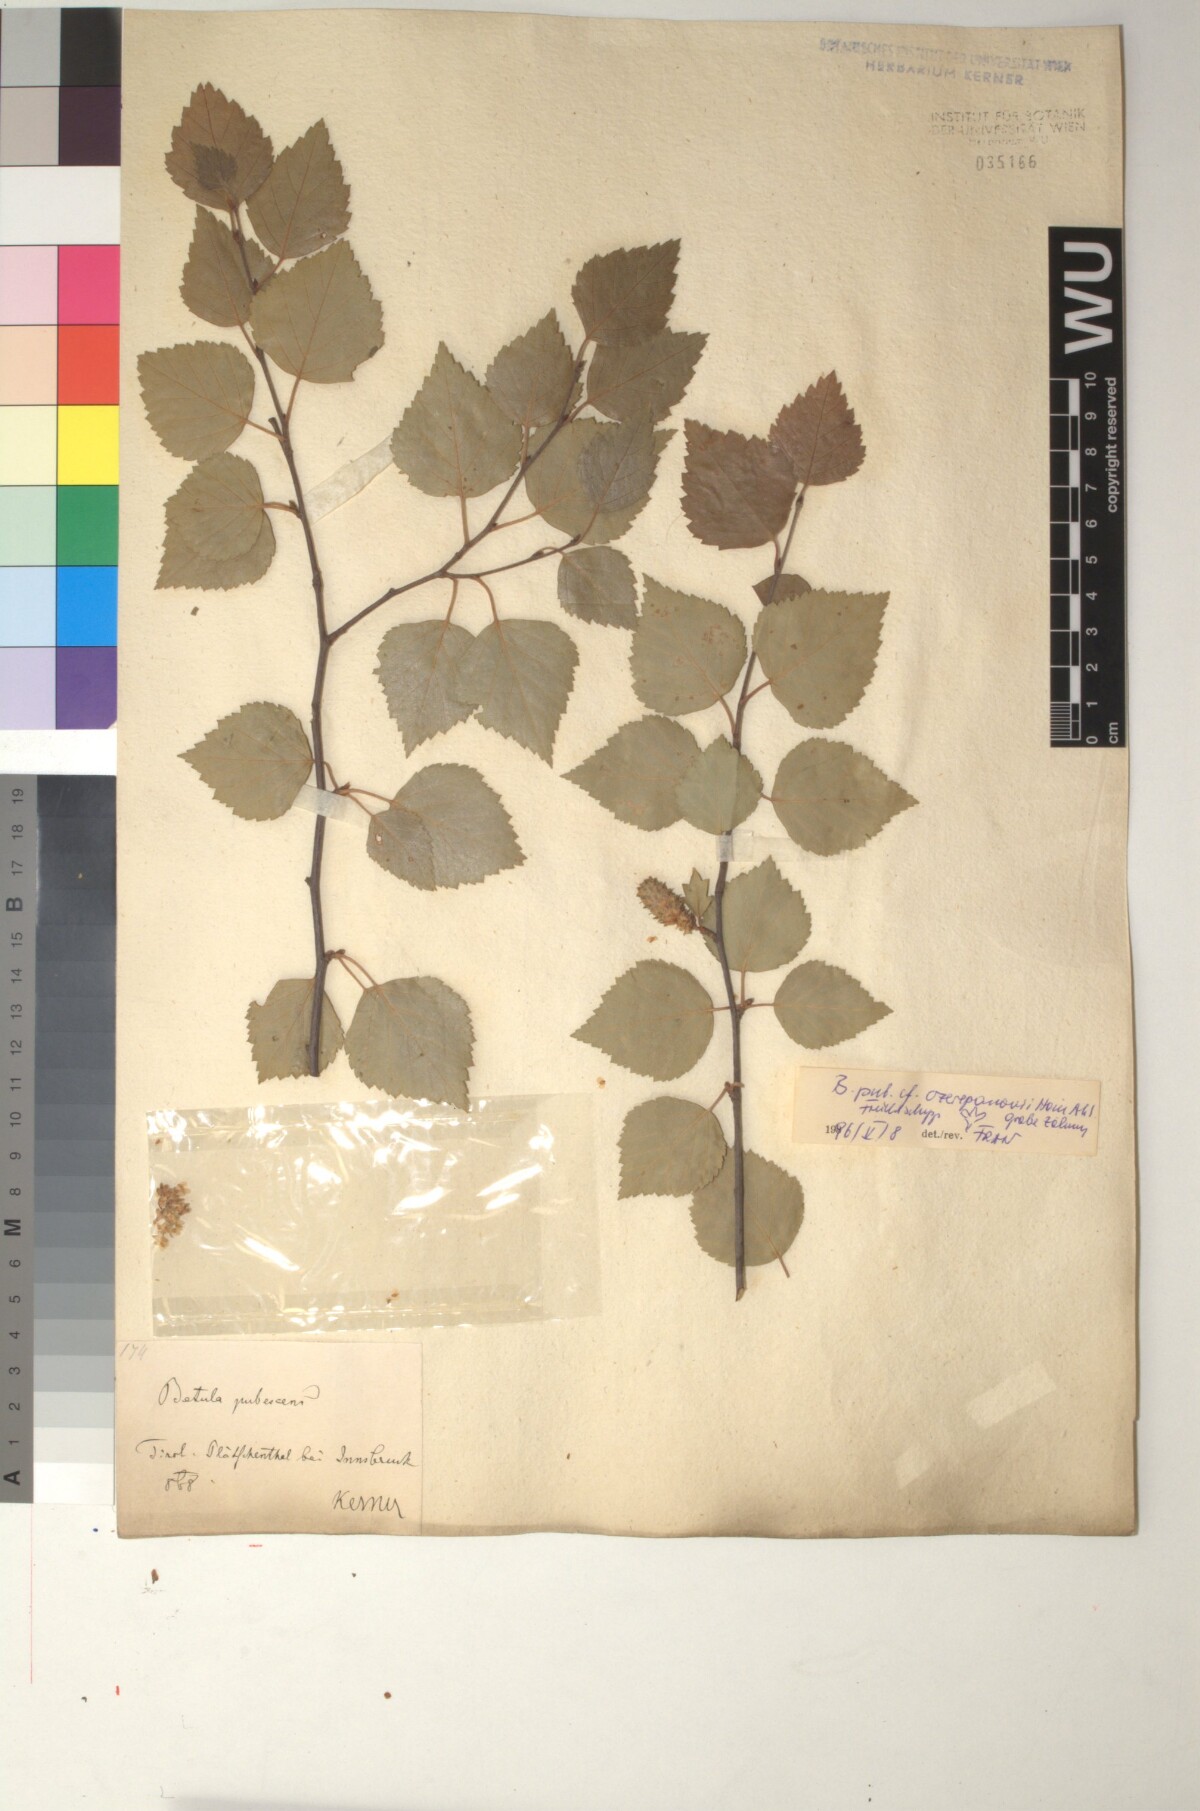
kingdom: Plantae
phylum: Tracheophyta
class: Magnoliopsida
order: Fagales
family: Betulaceae
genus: Betula
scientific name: Betula pubescens
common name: Downy birch
